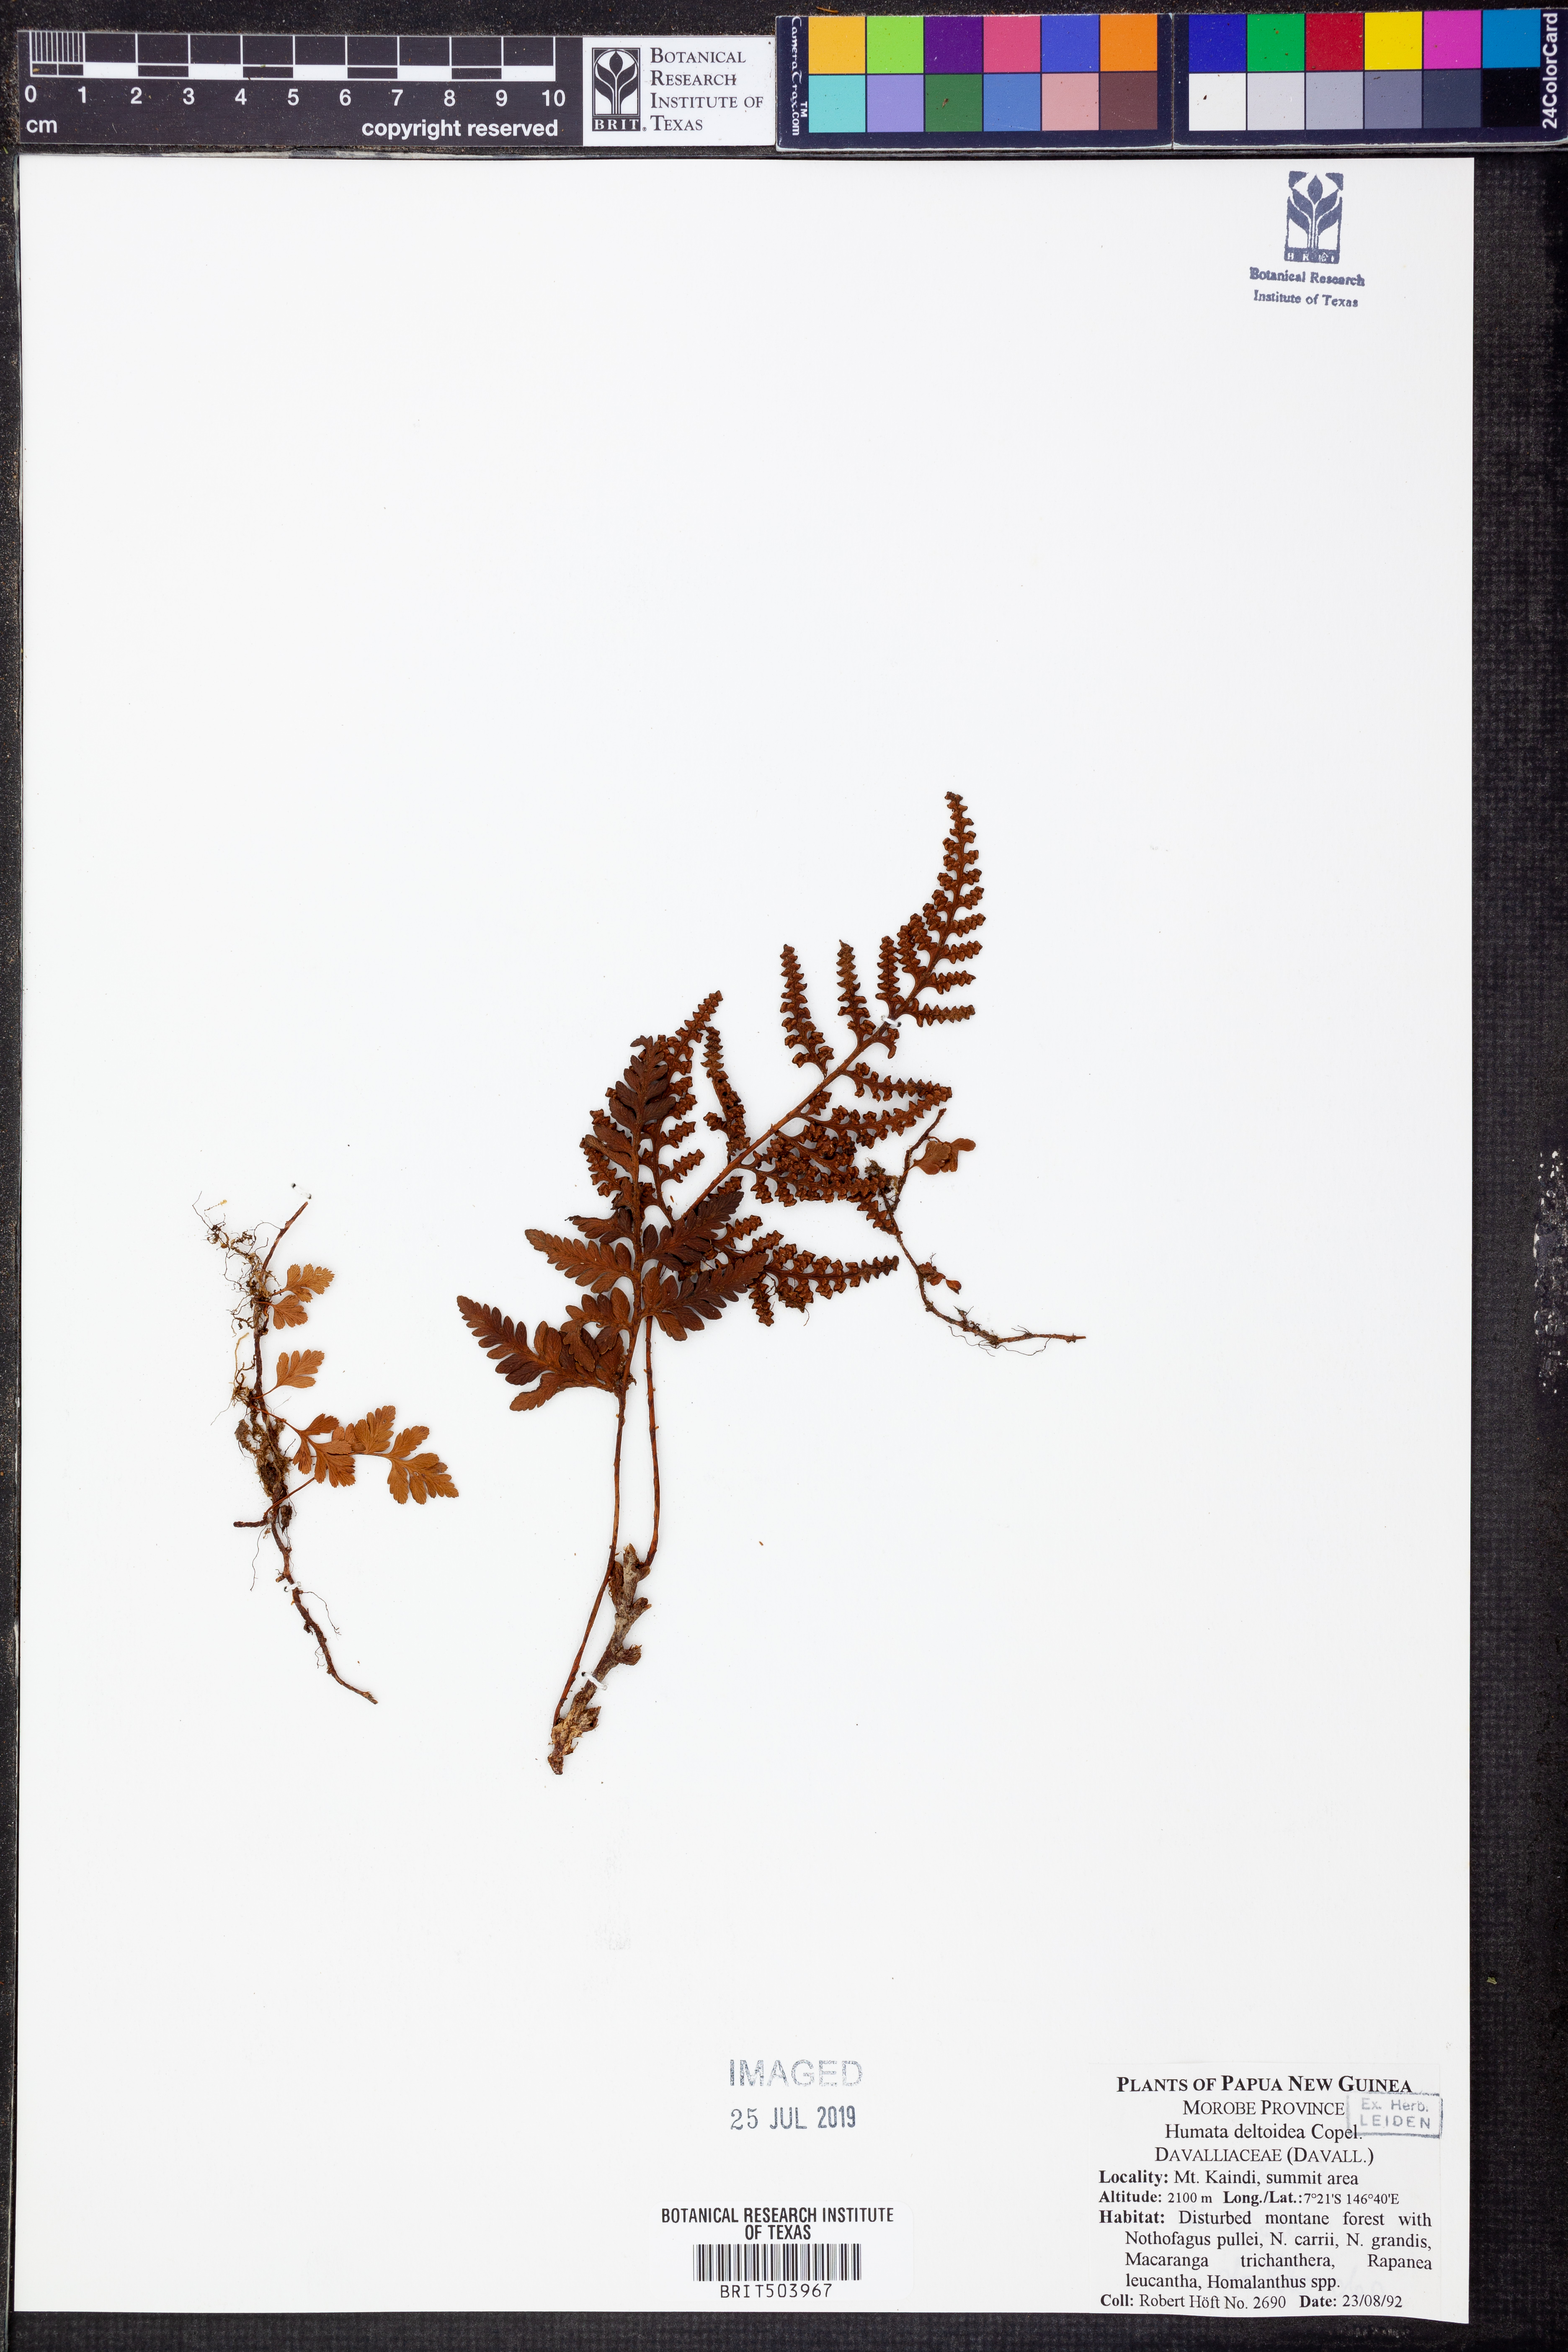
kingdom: Plantae
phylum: Tracheophyta
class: Polypodiopsida
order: Polypodiales
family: Davalliaceae
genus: Davallia
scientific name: Davallia repens
